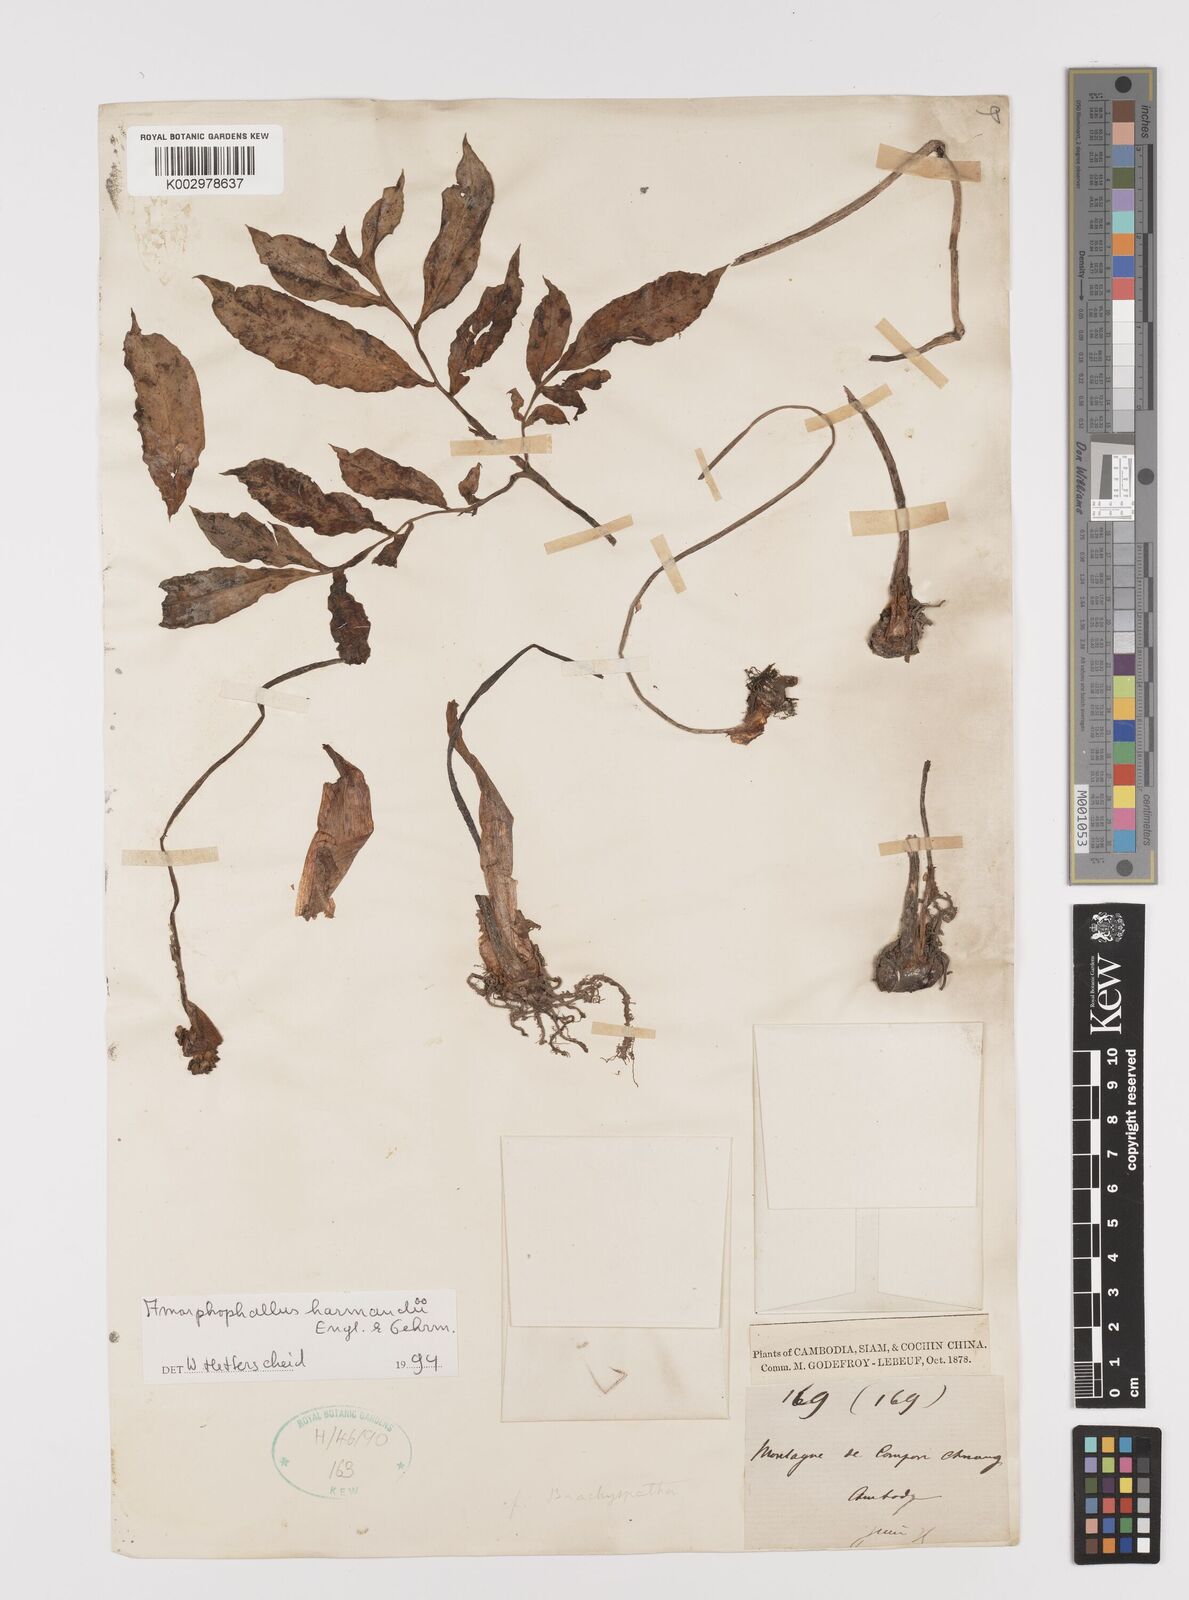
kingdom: Plantae
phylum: Tracheophyta
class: Liliopsida
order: Alismatales
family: Araceae
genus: Amorphophallus
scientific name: Amorphophallus harmandii
